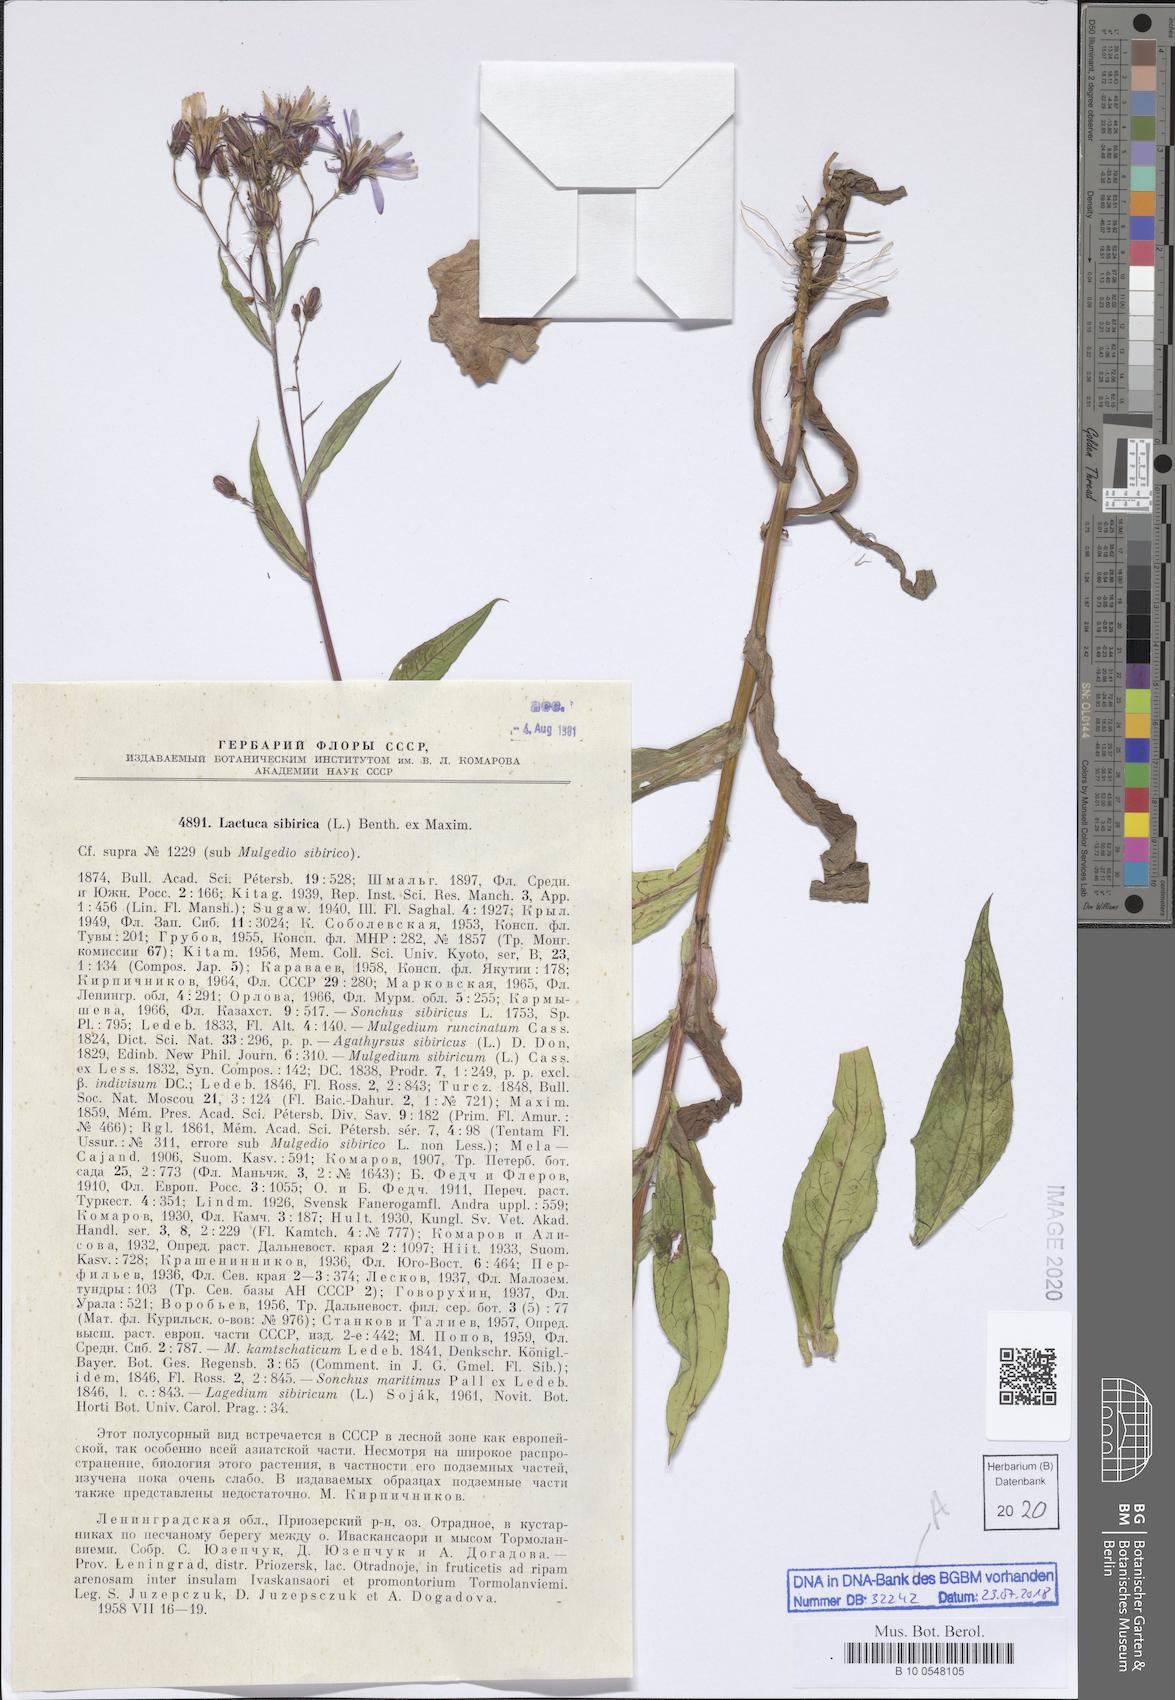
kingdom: Plantae
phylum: Tracheophyta
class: Magnoliopsida
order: Asterales
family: Asteraceae
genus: Lactuca
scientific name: Lactuca sibirica
